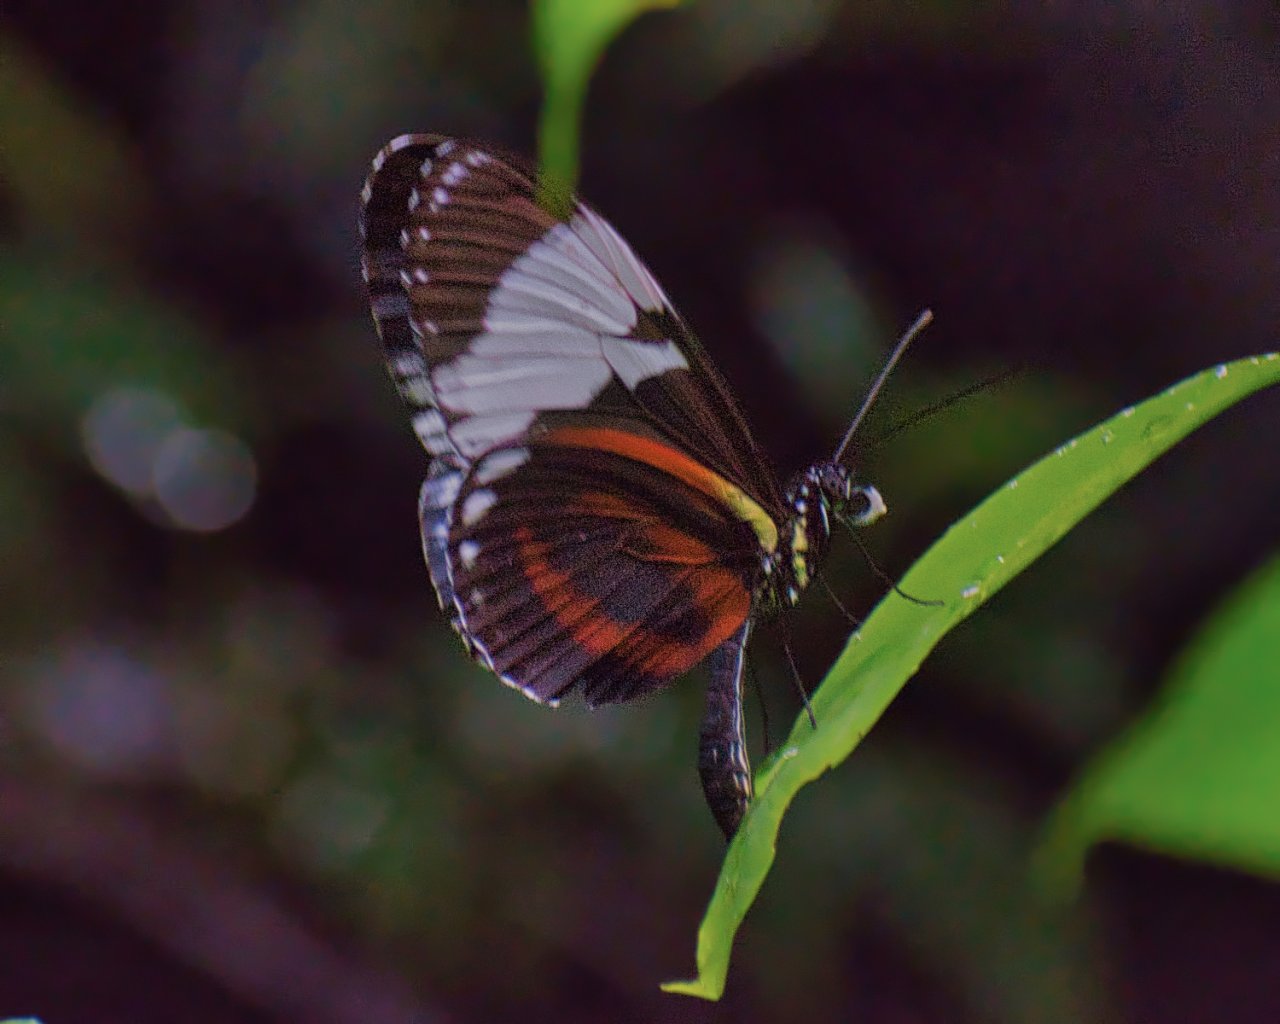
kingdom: Animalia
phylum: Arthropoda
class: Insecta
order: Lepidoptera
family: Nymphalidae
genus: Heliconius
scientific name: Heliconius cydno
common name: Cydno Longwing
